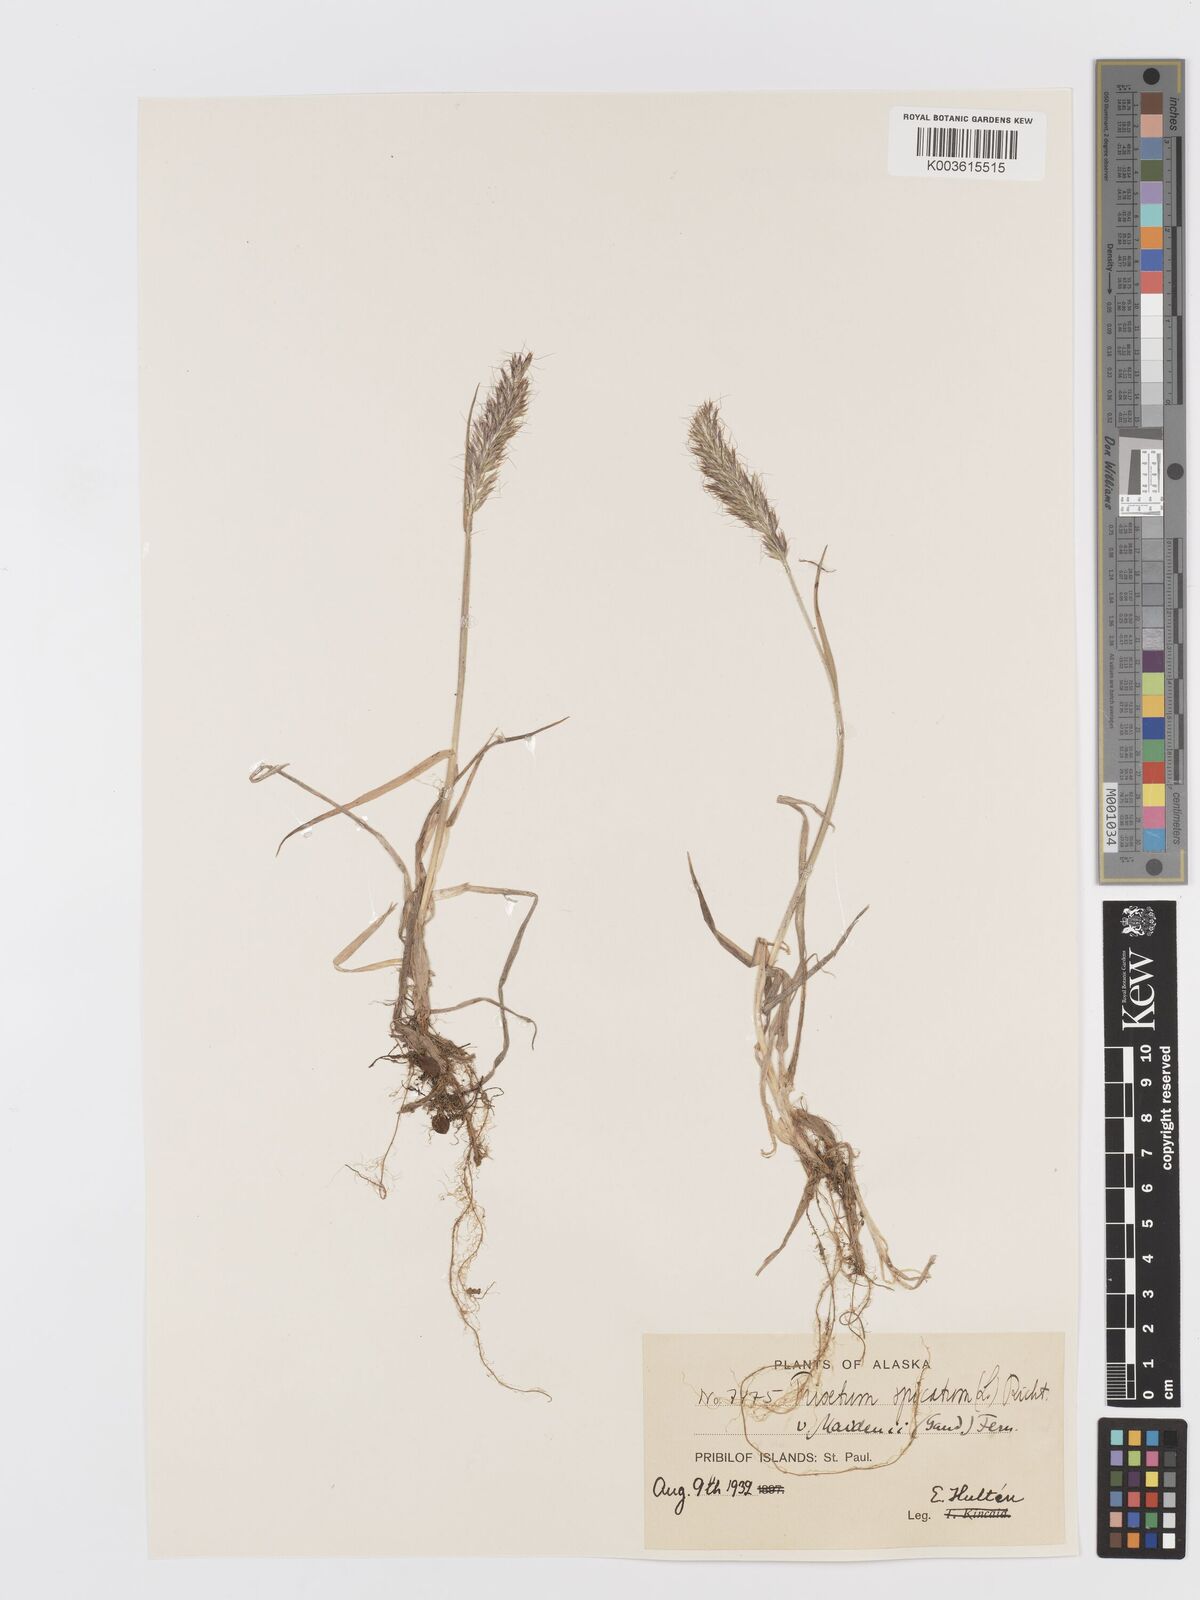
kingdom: Plantae
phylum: Tracheophyta
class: Liliopsida
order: Poales
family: Poaceae
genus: Koeleria
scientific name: Koeleria spicata
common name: Mountain trisetum
